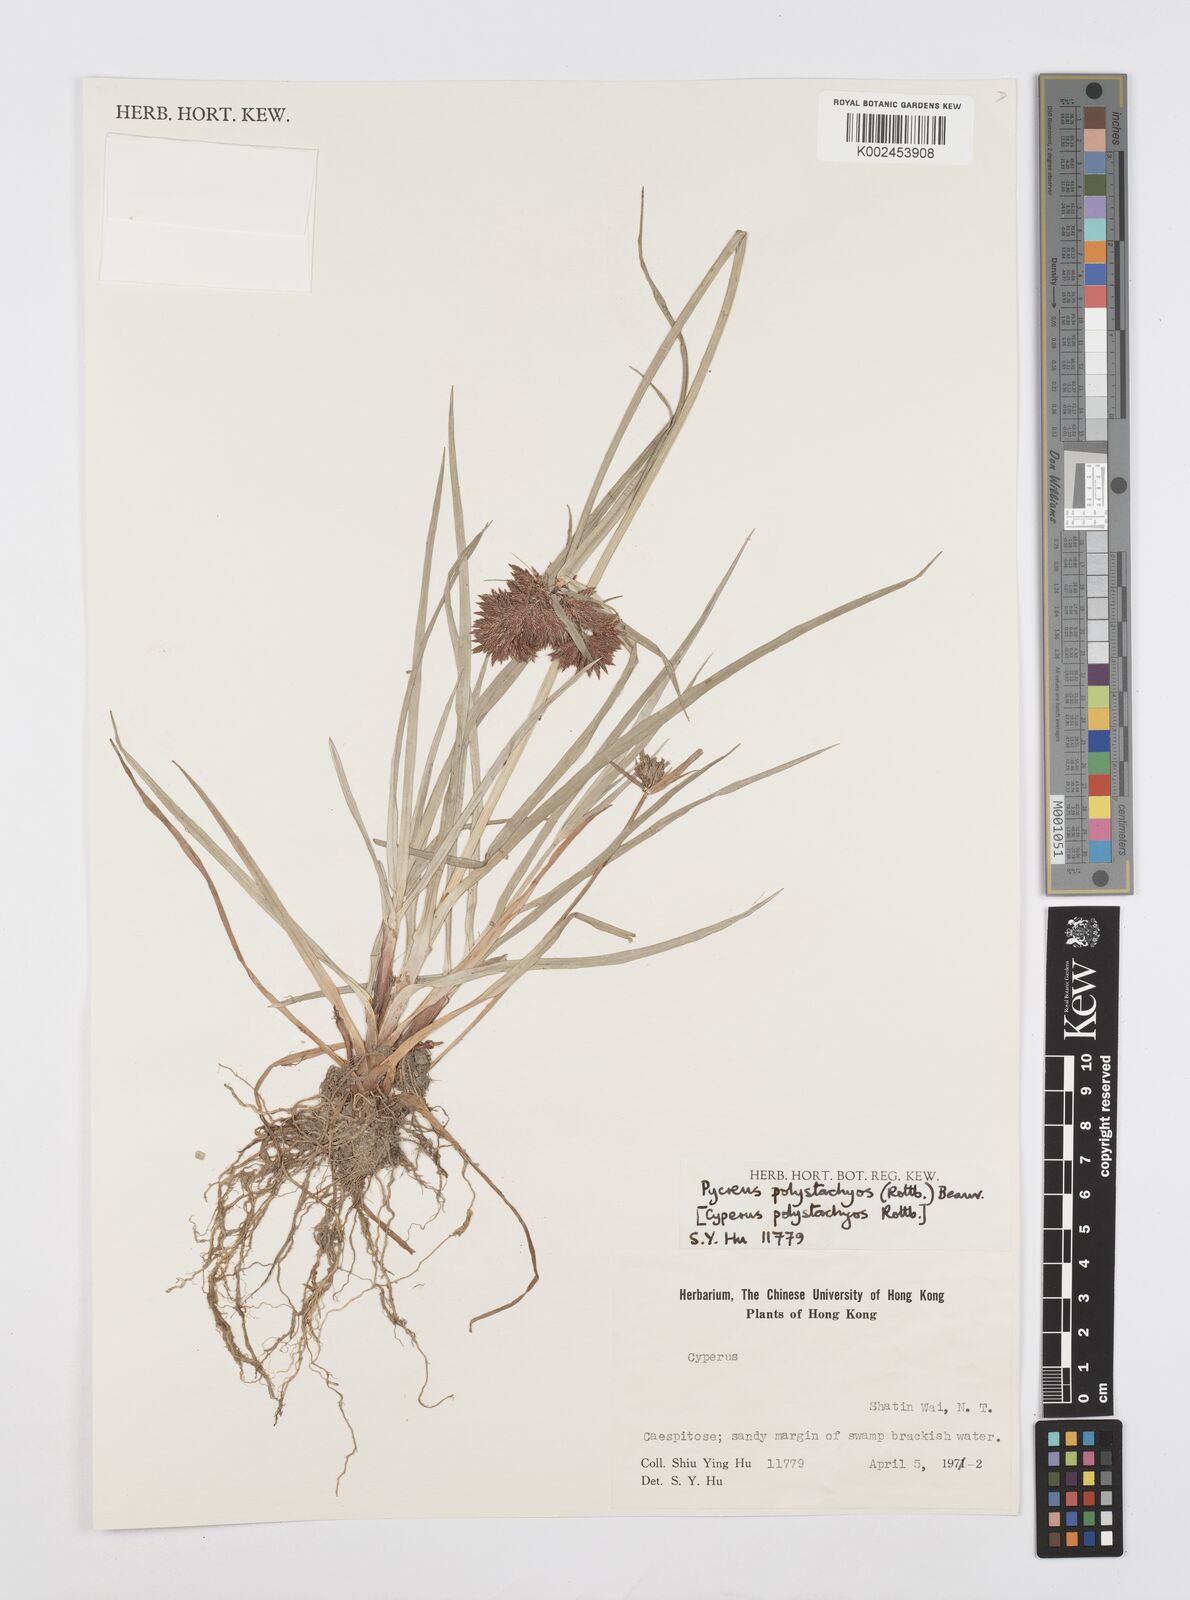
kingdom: Plantae
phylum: Tracheophyta
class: Liliopsida
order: Poales
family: Cyperaceae
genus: Cyperus
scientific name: Cyperus polystachyos
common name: Bunchy flat sedge
